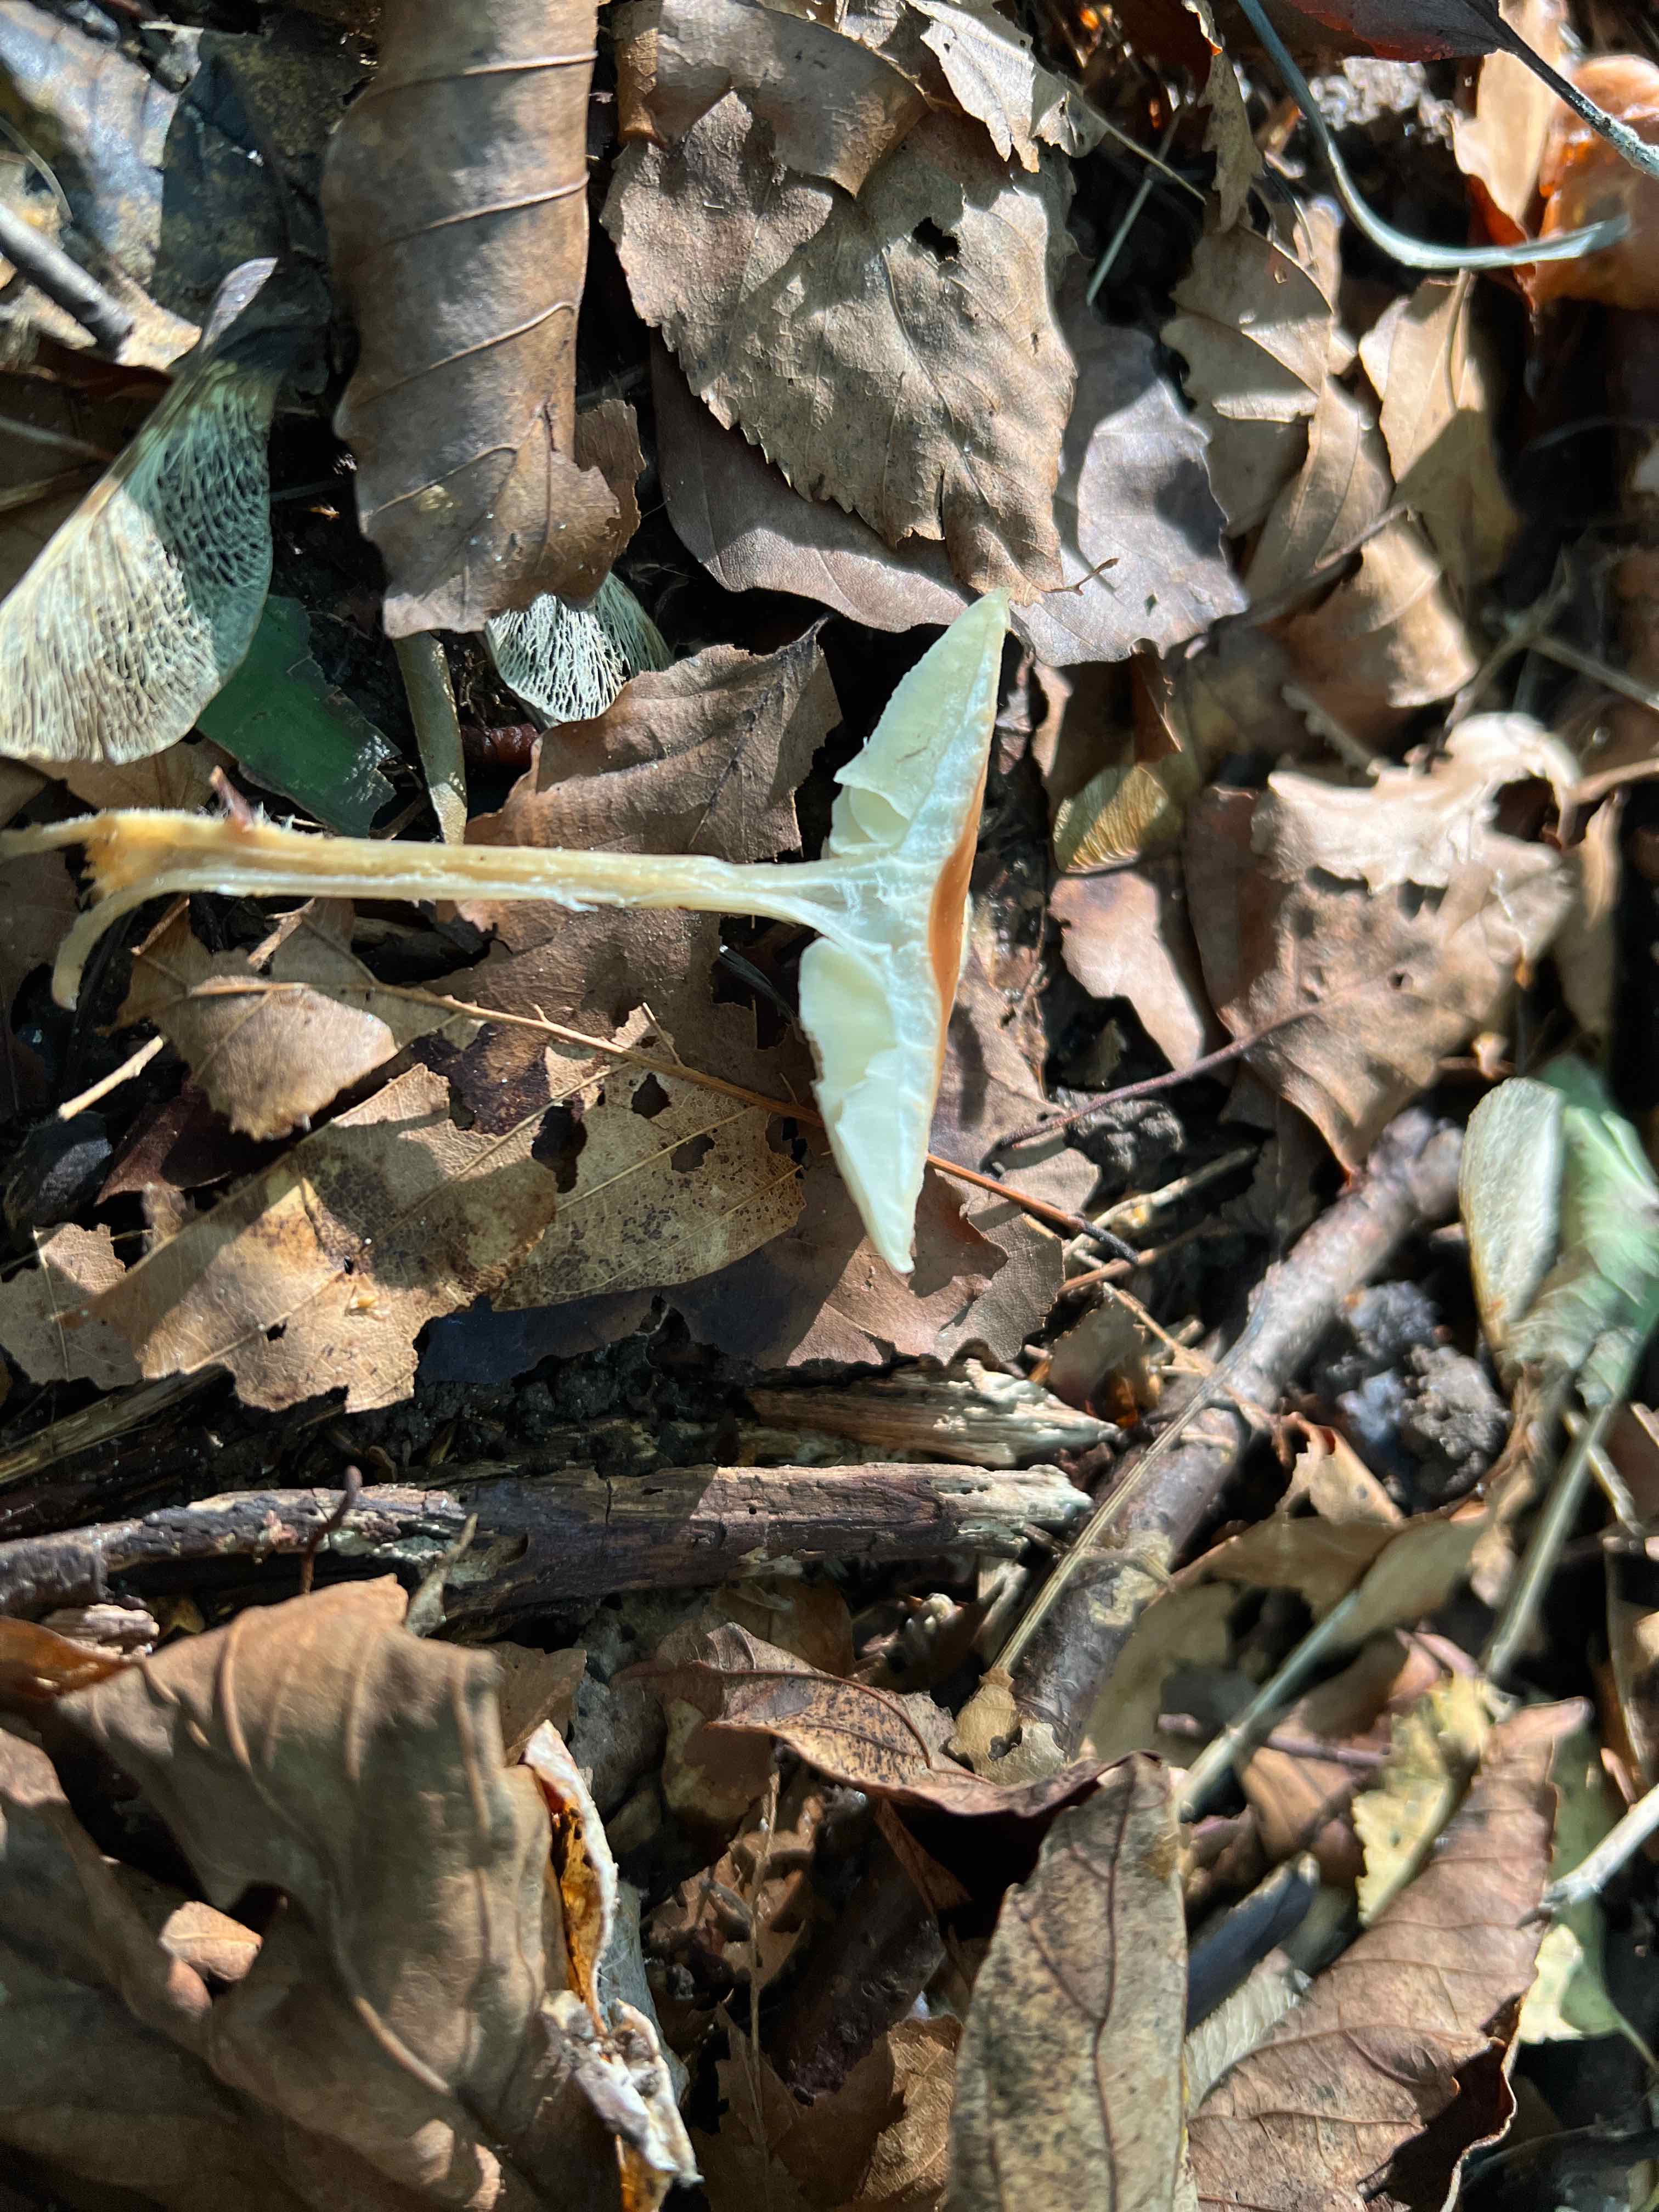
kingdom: Fungi
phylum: Basidiomycota
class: Agaricomycetes
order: Agaricales
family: Omphalotaceae
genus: Gymnopus
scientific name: Gymnopus dryophilus
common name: løv-fladhat
